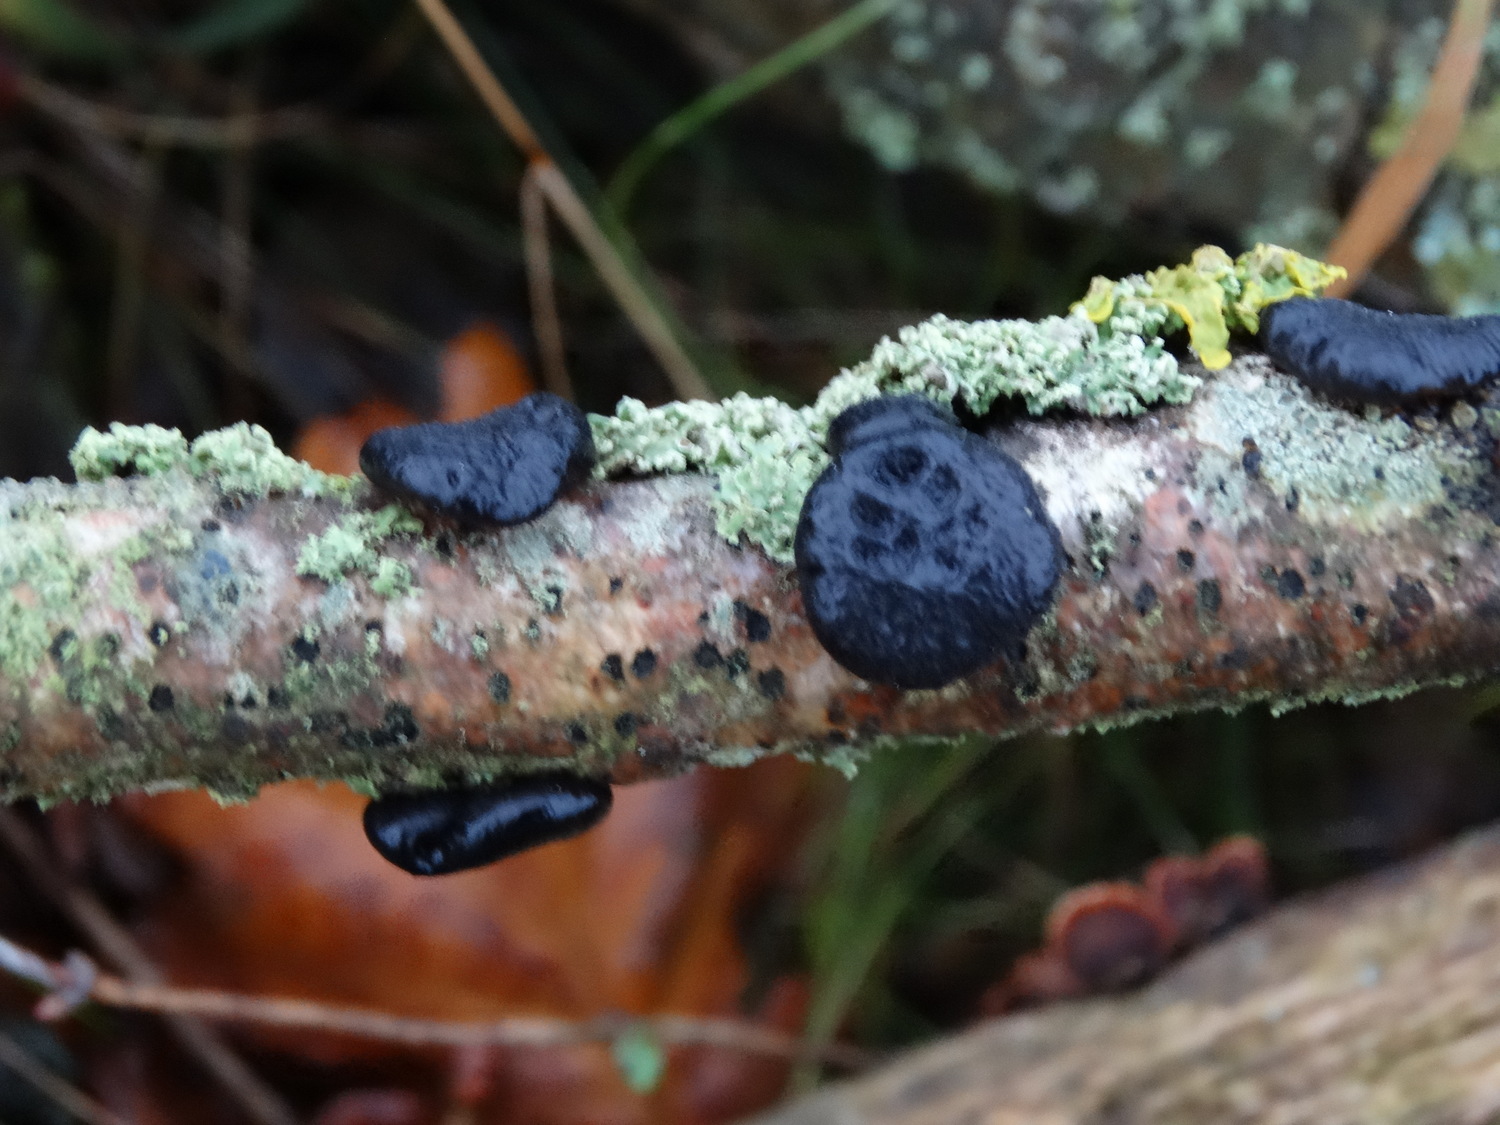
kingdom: Fungi
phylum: Basidiomycota
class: Agaricomycetes
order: Auriculariales
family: Auriculariaceae
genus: Exidia
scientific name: Exidia glandulosa
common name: ege-bævretop
